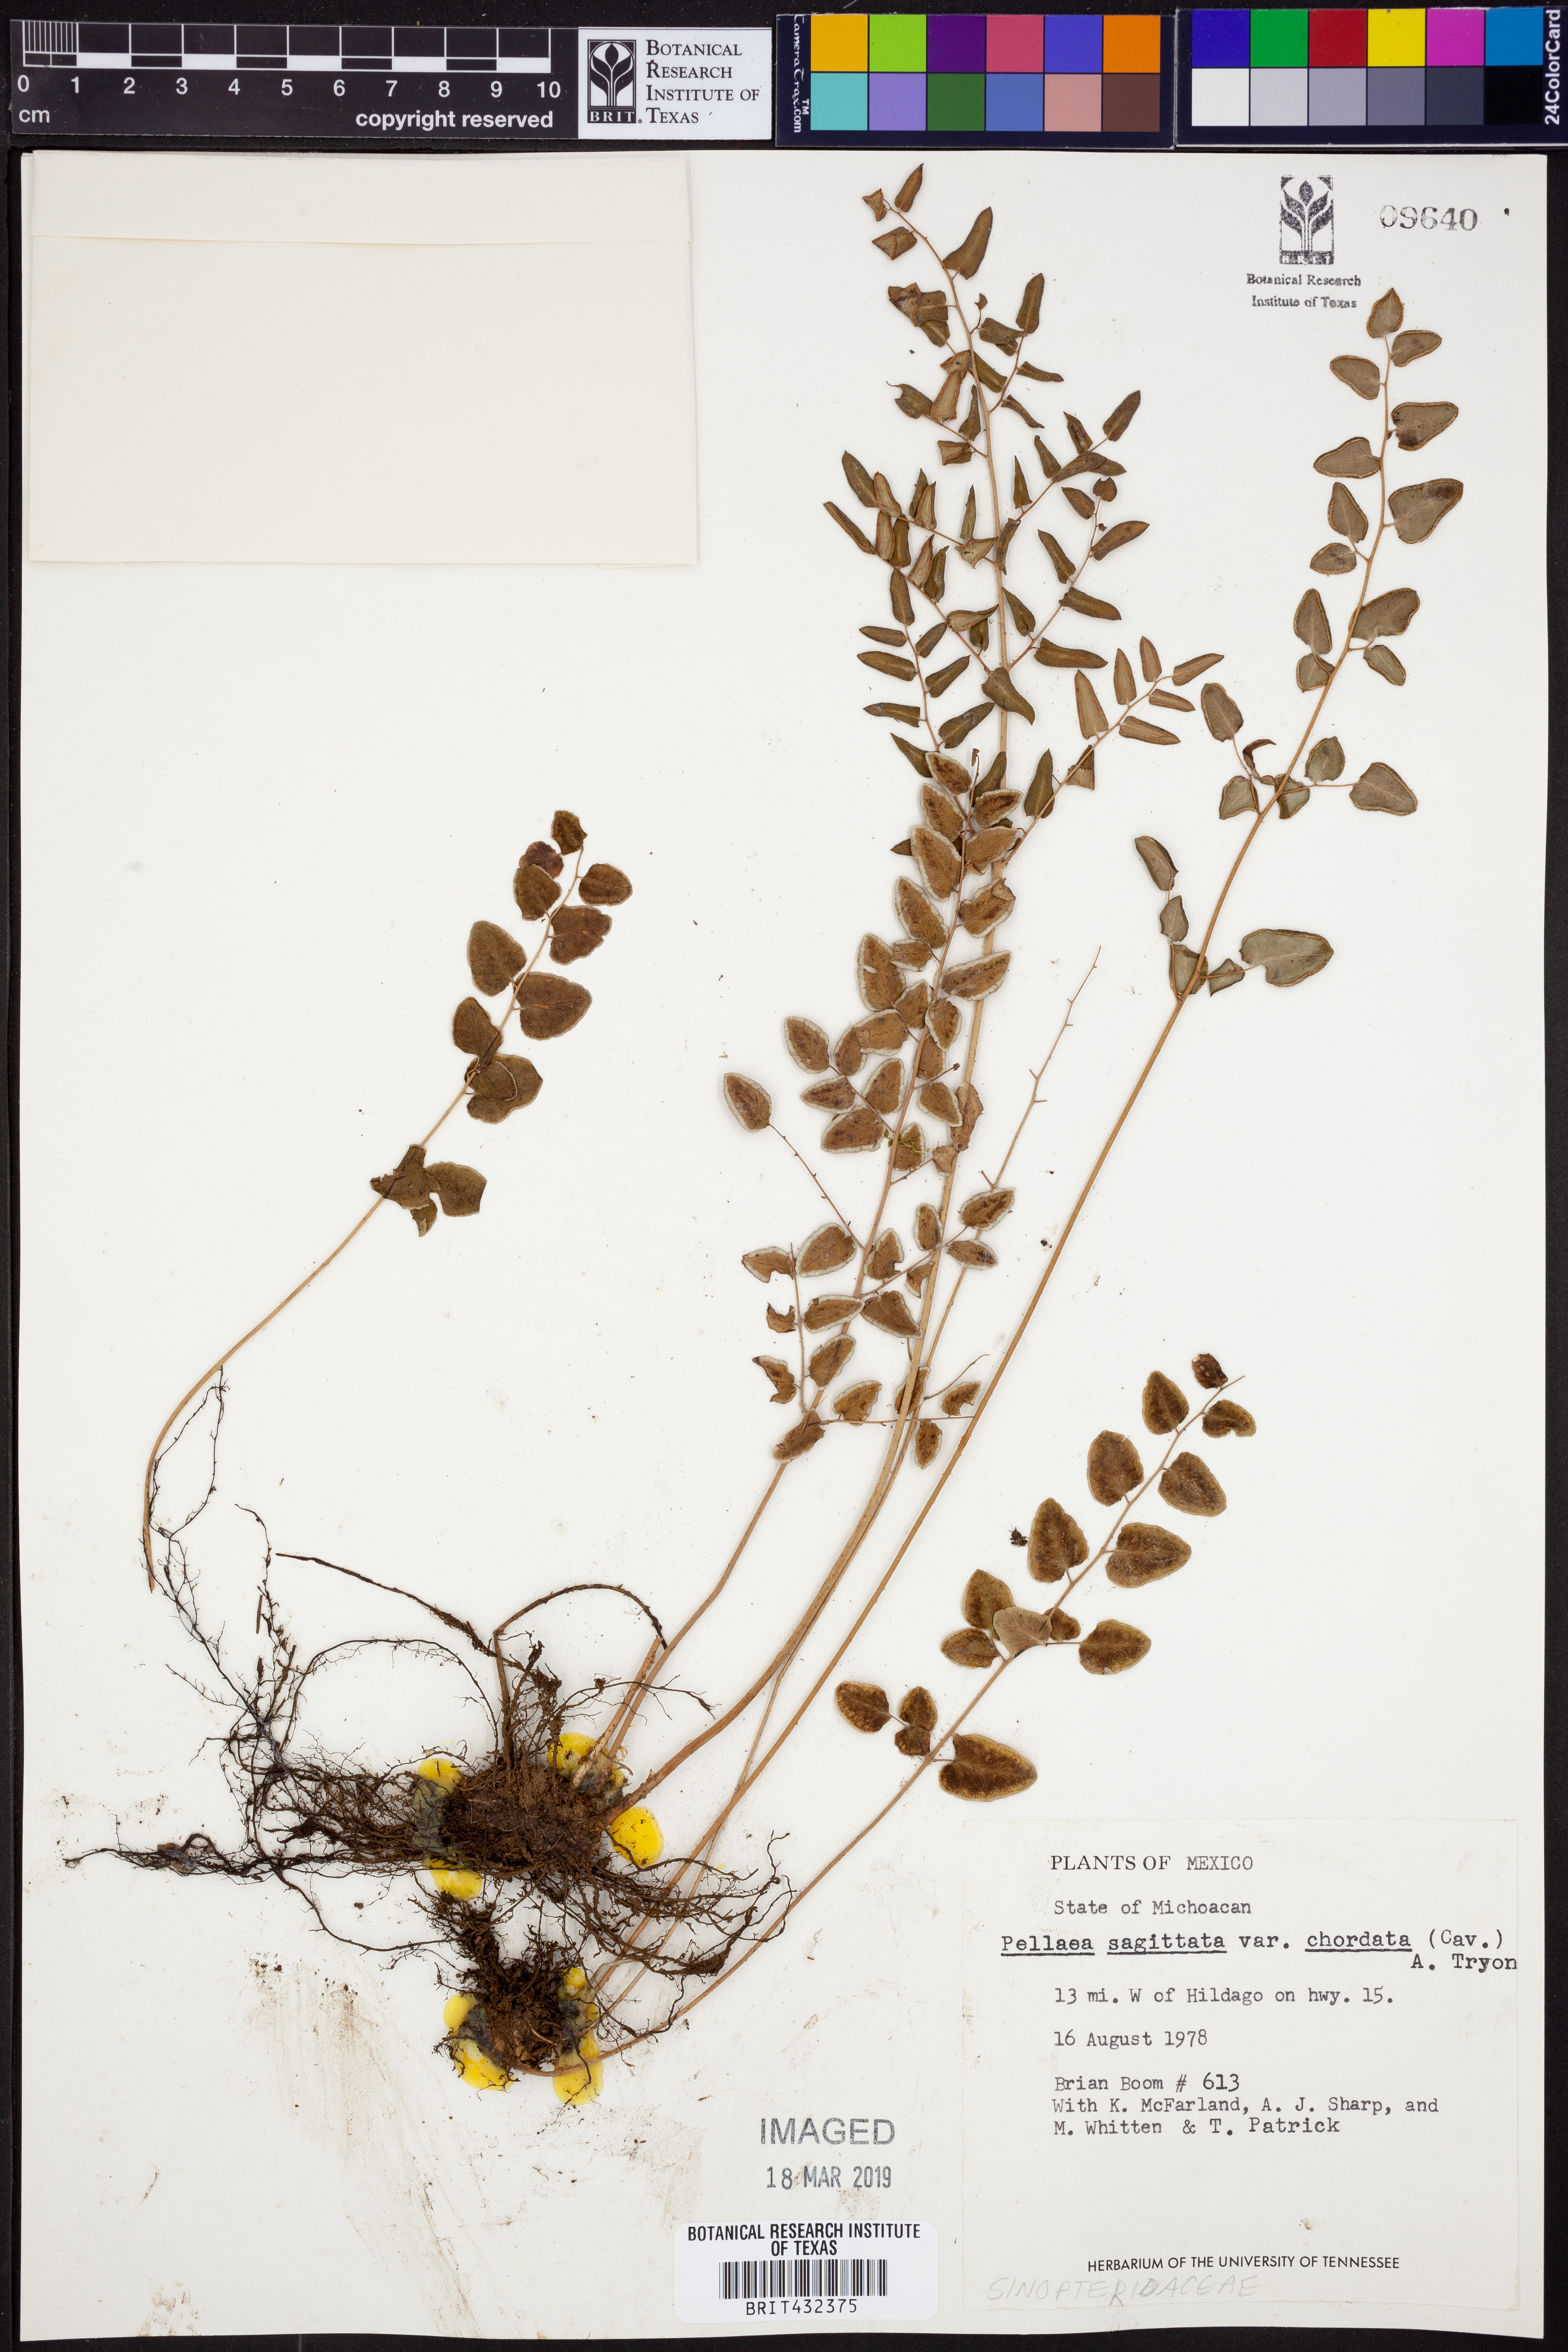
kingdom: Plantae
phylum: Tracheophyta
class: Polypodiopsida
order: Polypodiales
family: Pteridaceae
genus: Pellaea
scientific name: Pellaea cordifolia
